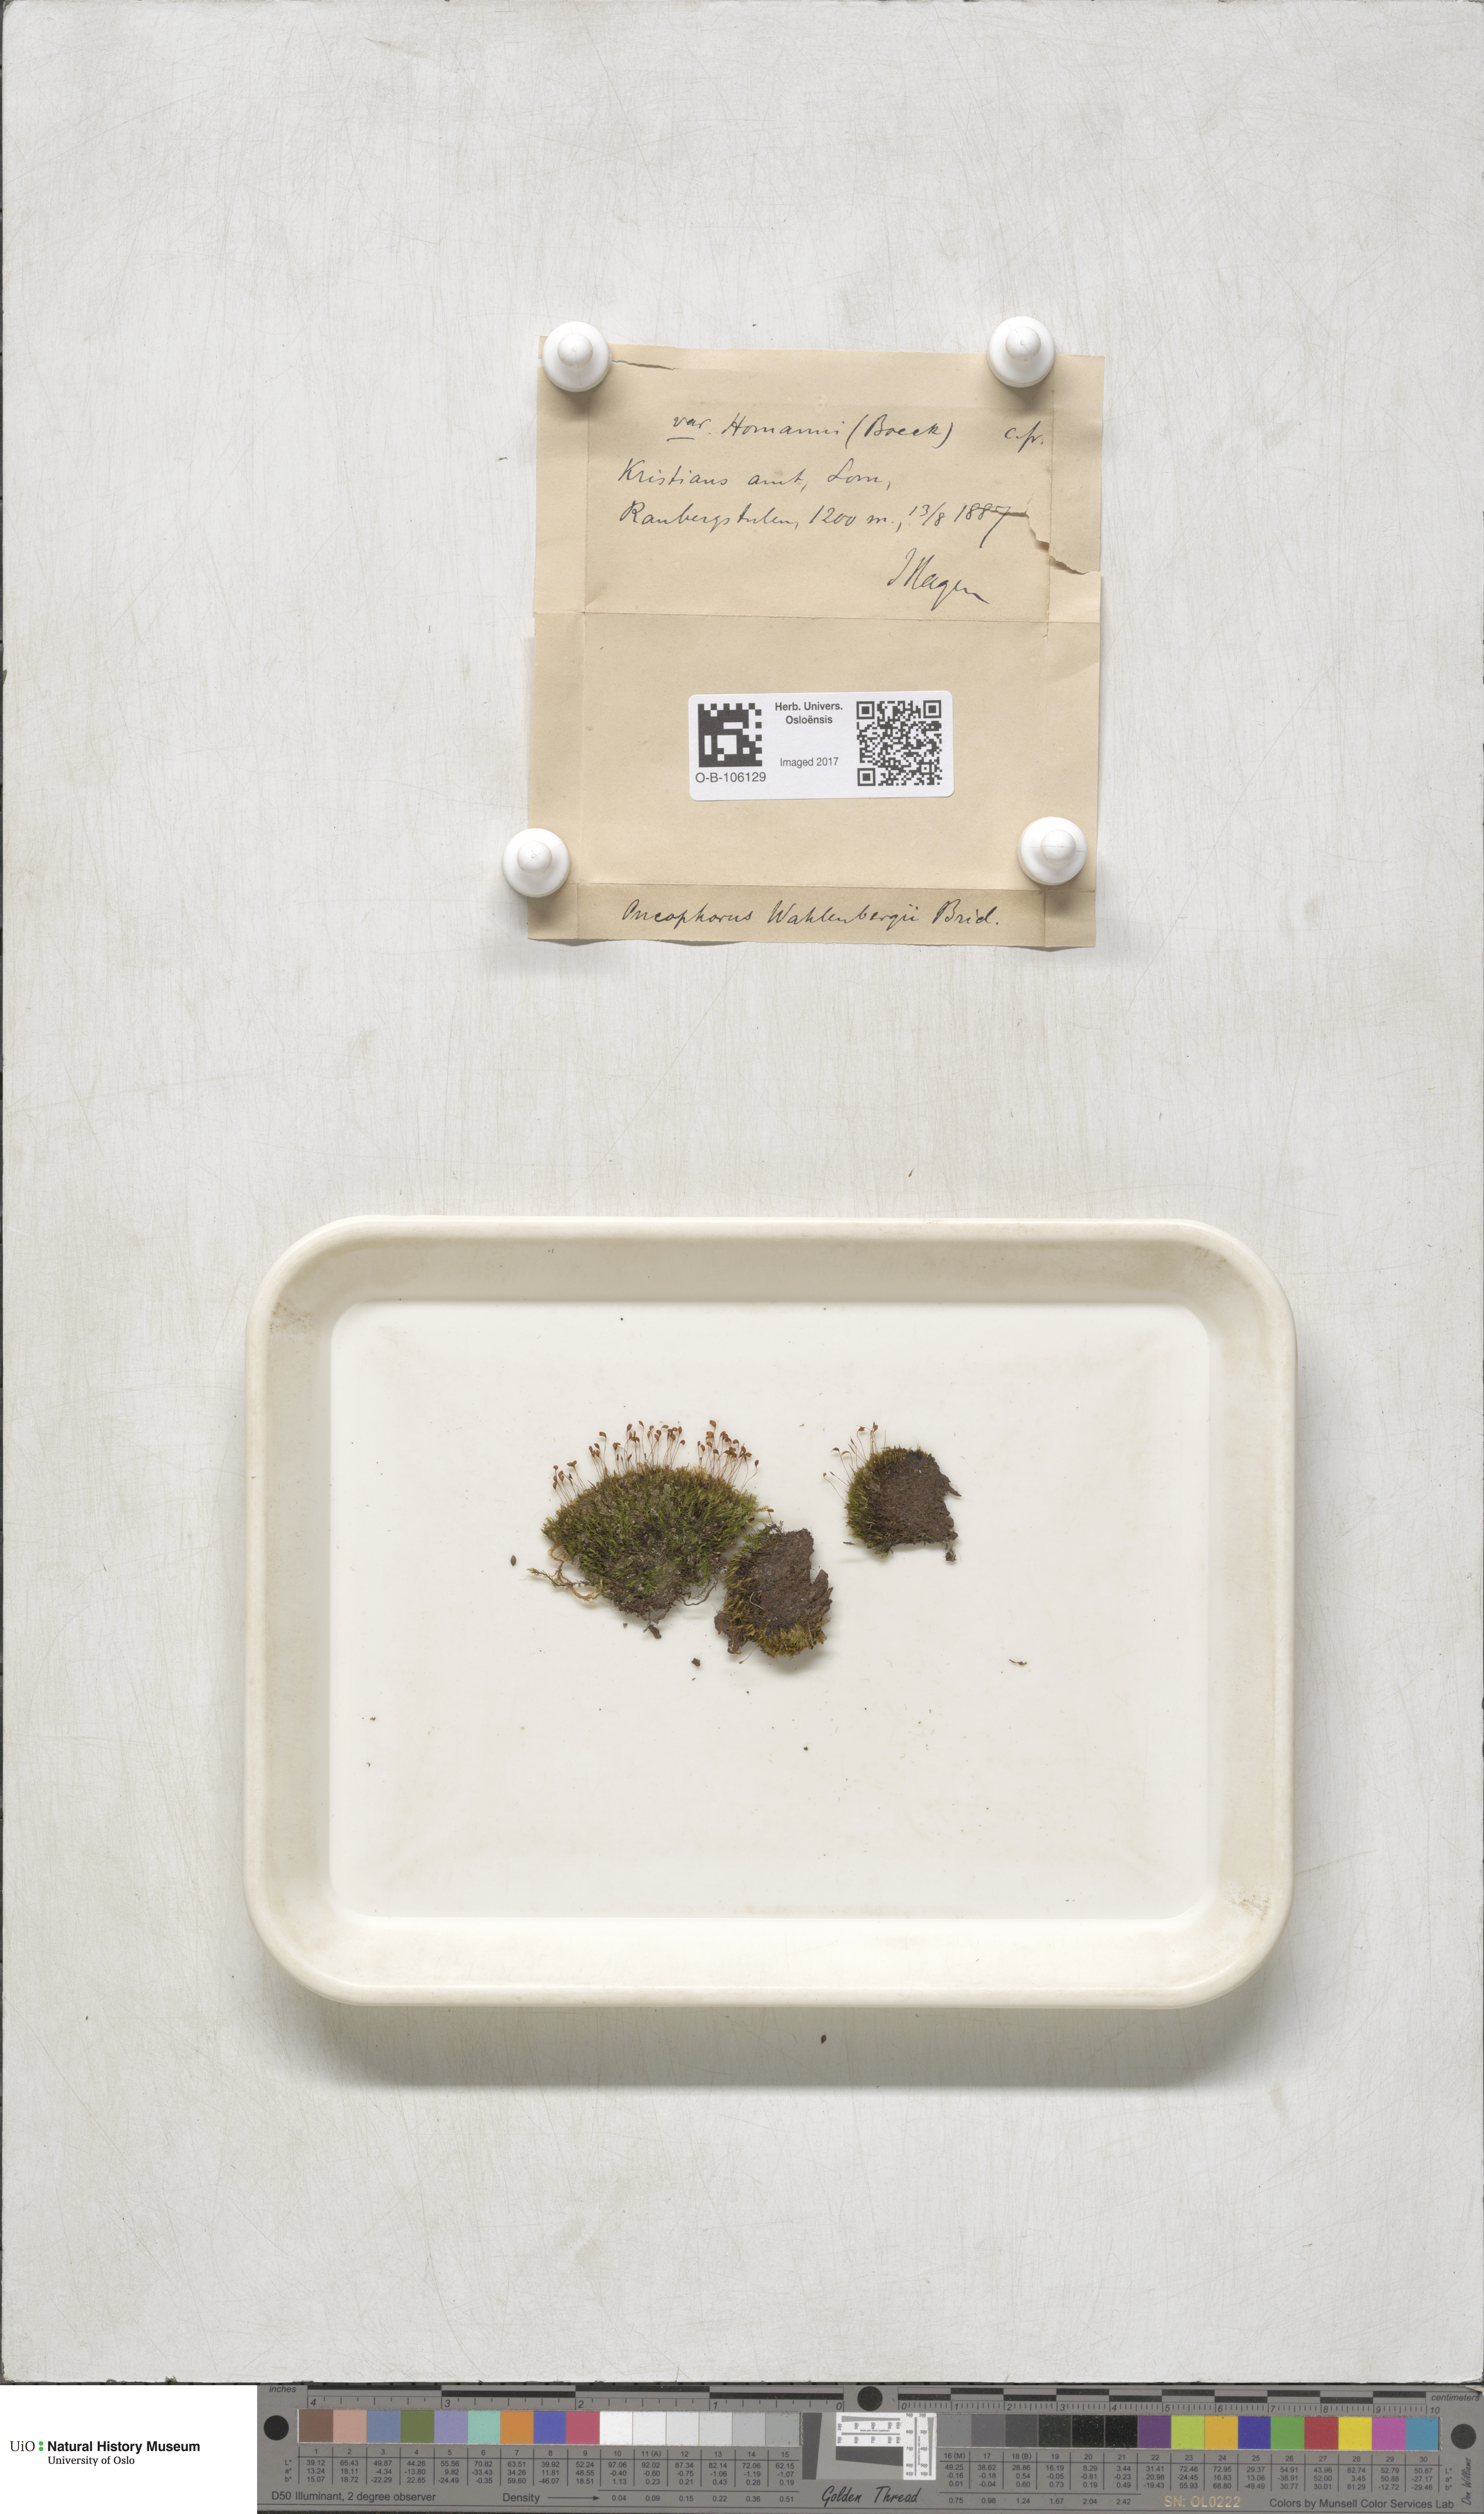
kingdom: Plantae
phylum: Bryophyta
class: Bryopsida
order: Dicranales
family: Rhabdoweisiaceae
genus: Brideliella
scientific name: Brideliella wahlenbergii
